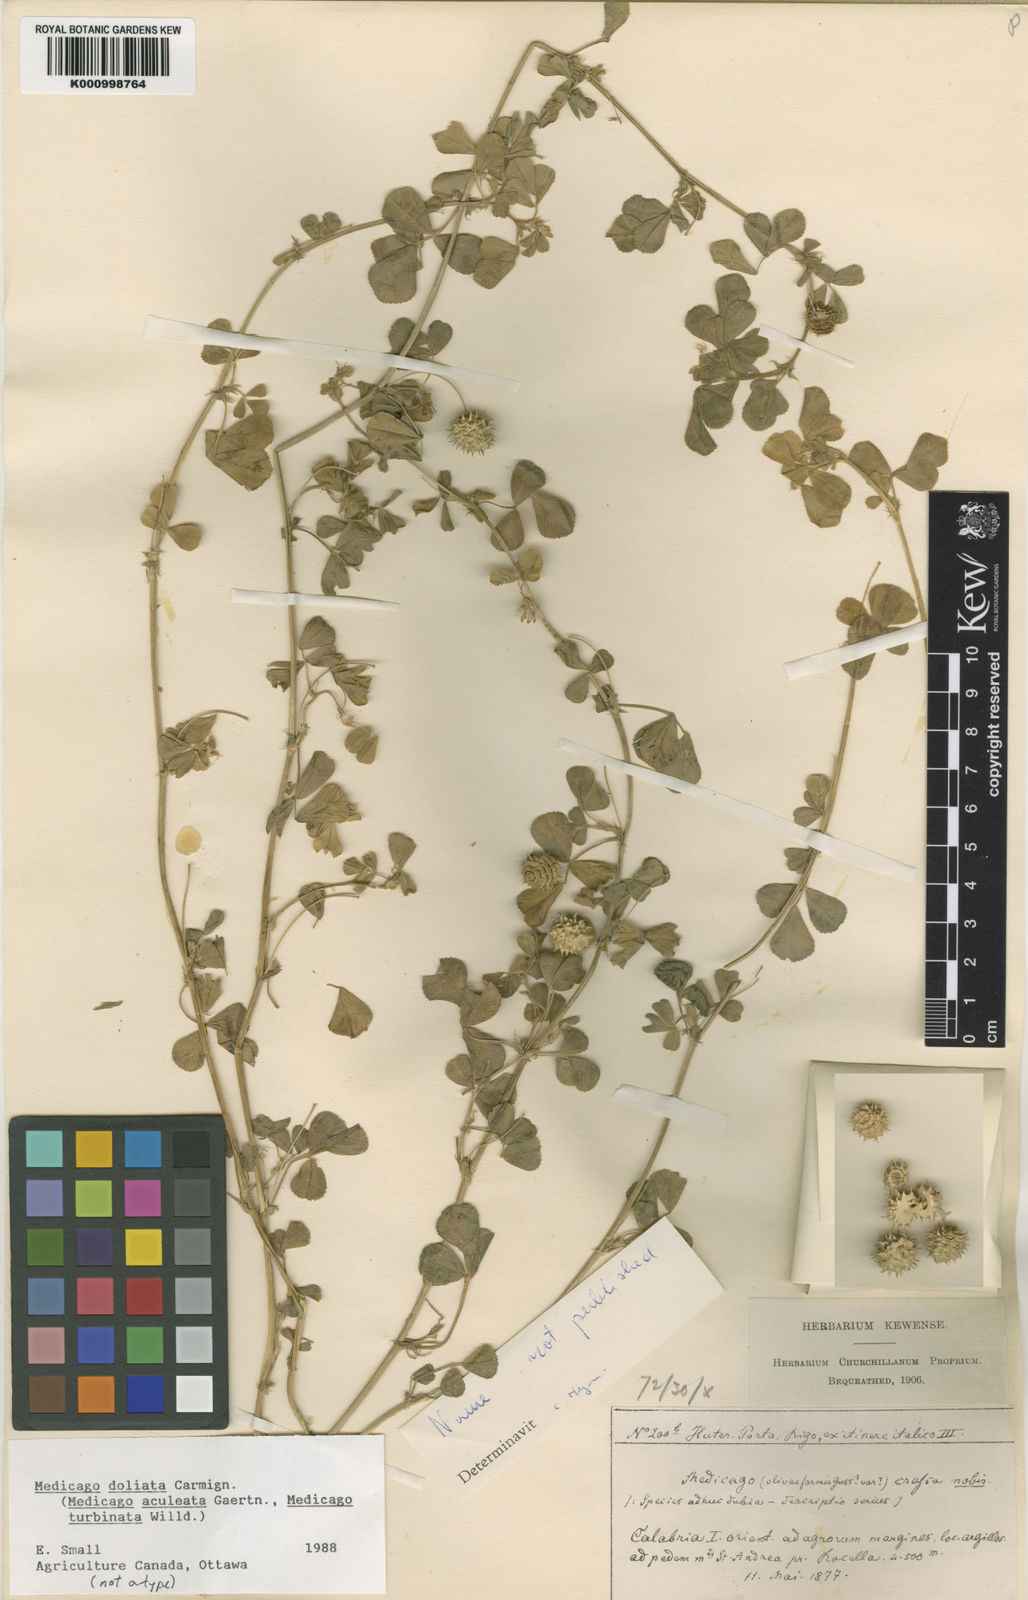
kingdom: Plantae
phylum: Tracheophyta
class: Magnoliopsida
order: Fabales
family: Fabaceae
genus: Medicago
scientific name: Medicago polymorpha
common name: Burclover
